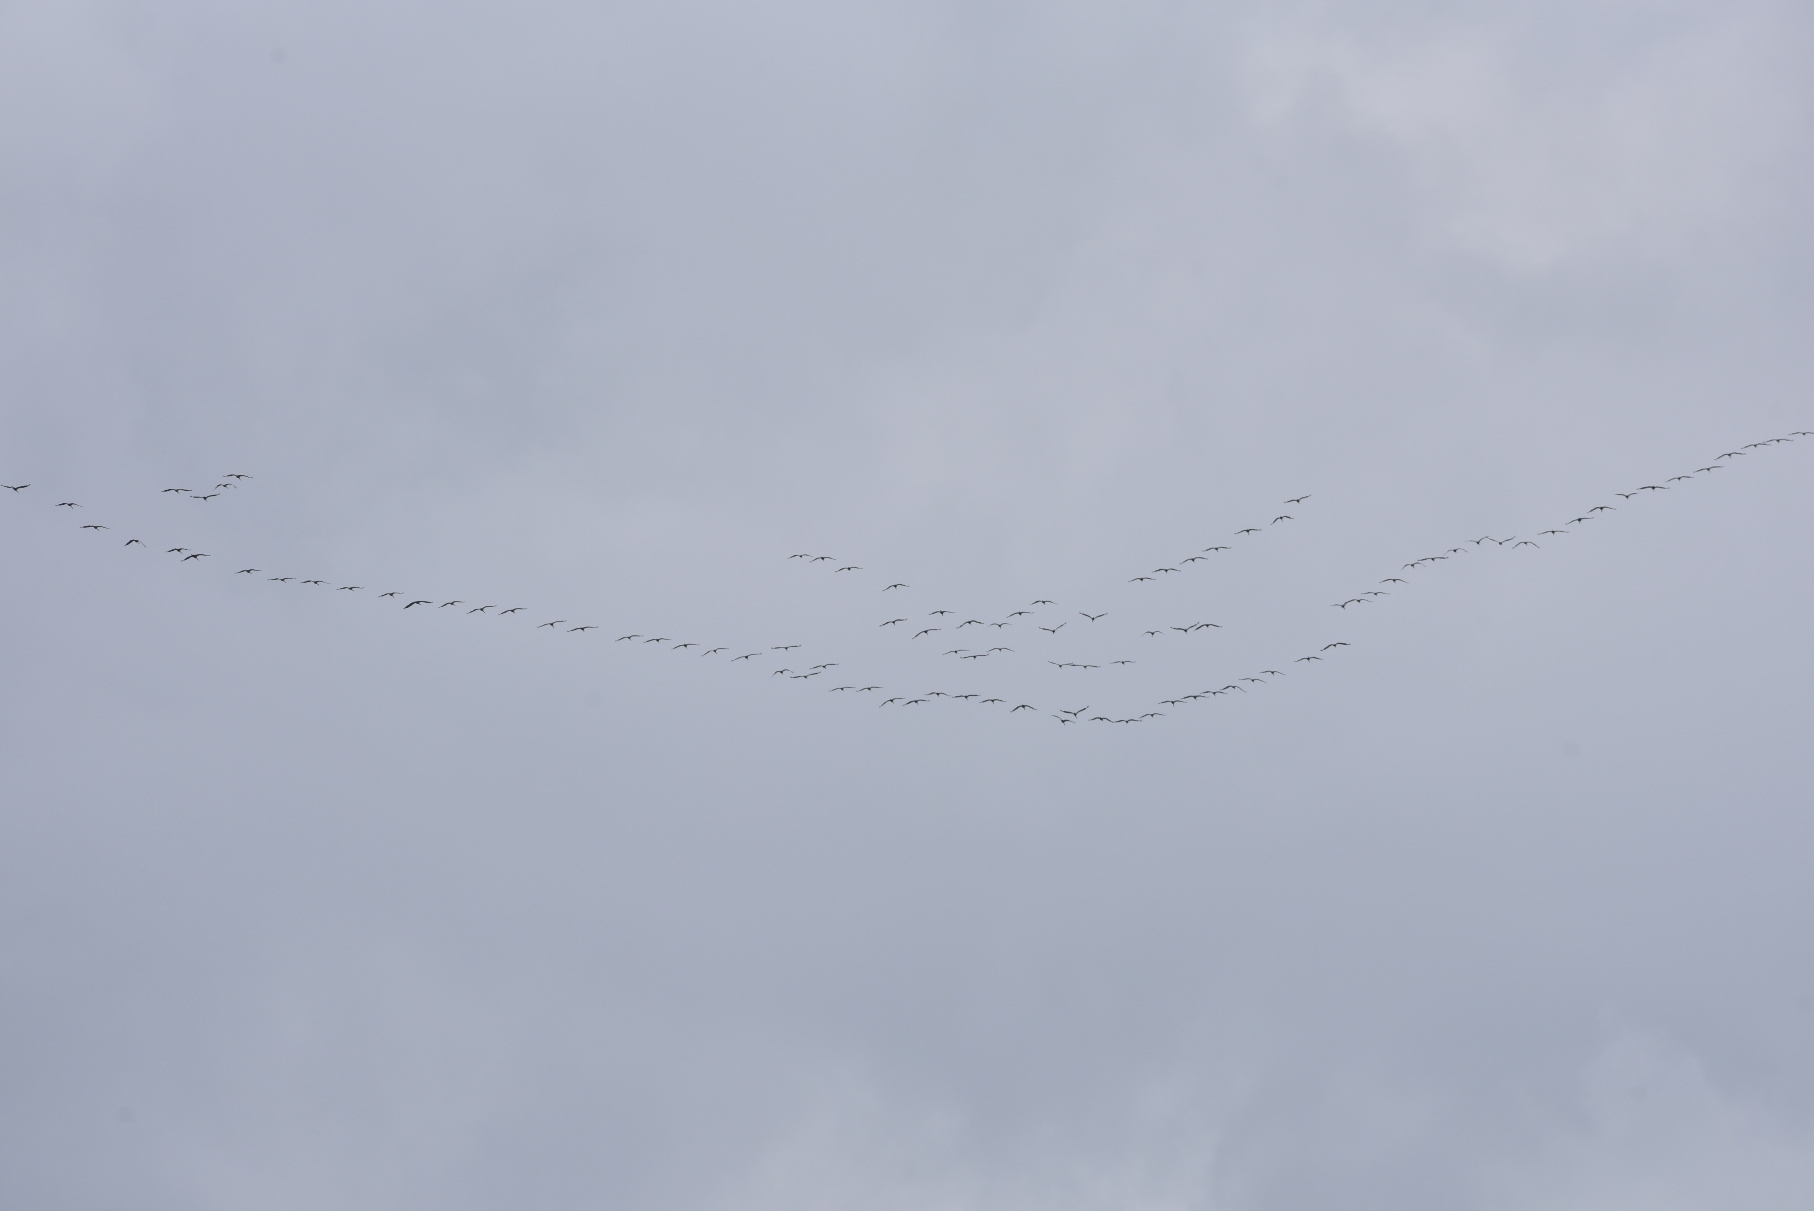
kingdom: Animalia
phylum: Chordata
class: Aves
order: Gruiformes
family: Gruidae
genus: Grus
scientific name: Grus grus
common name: Trane
